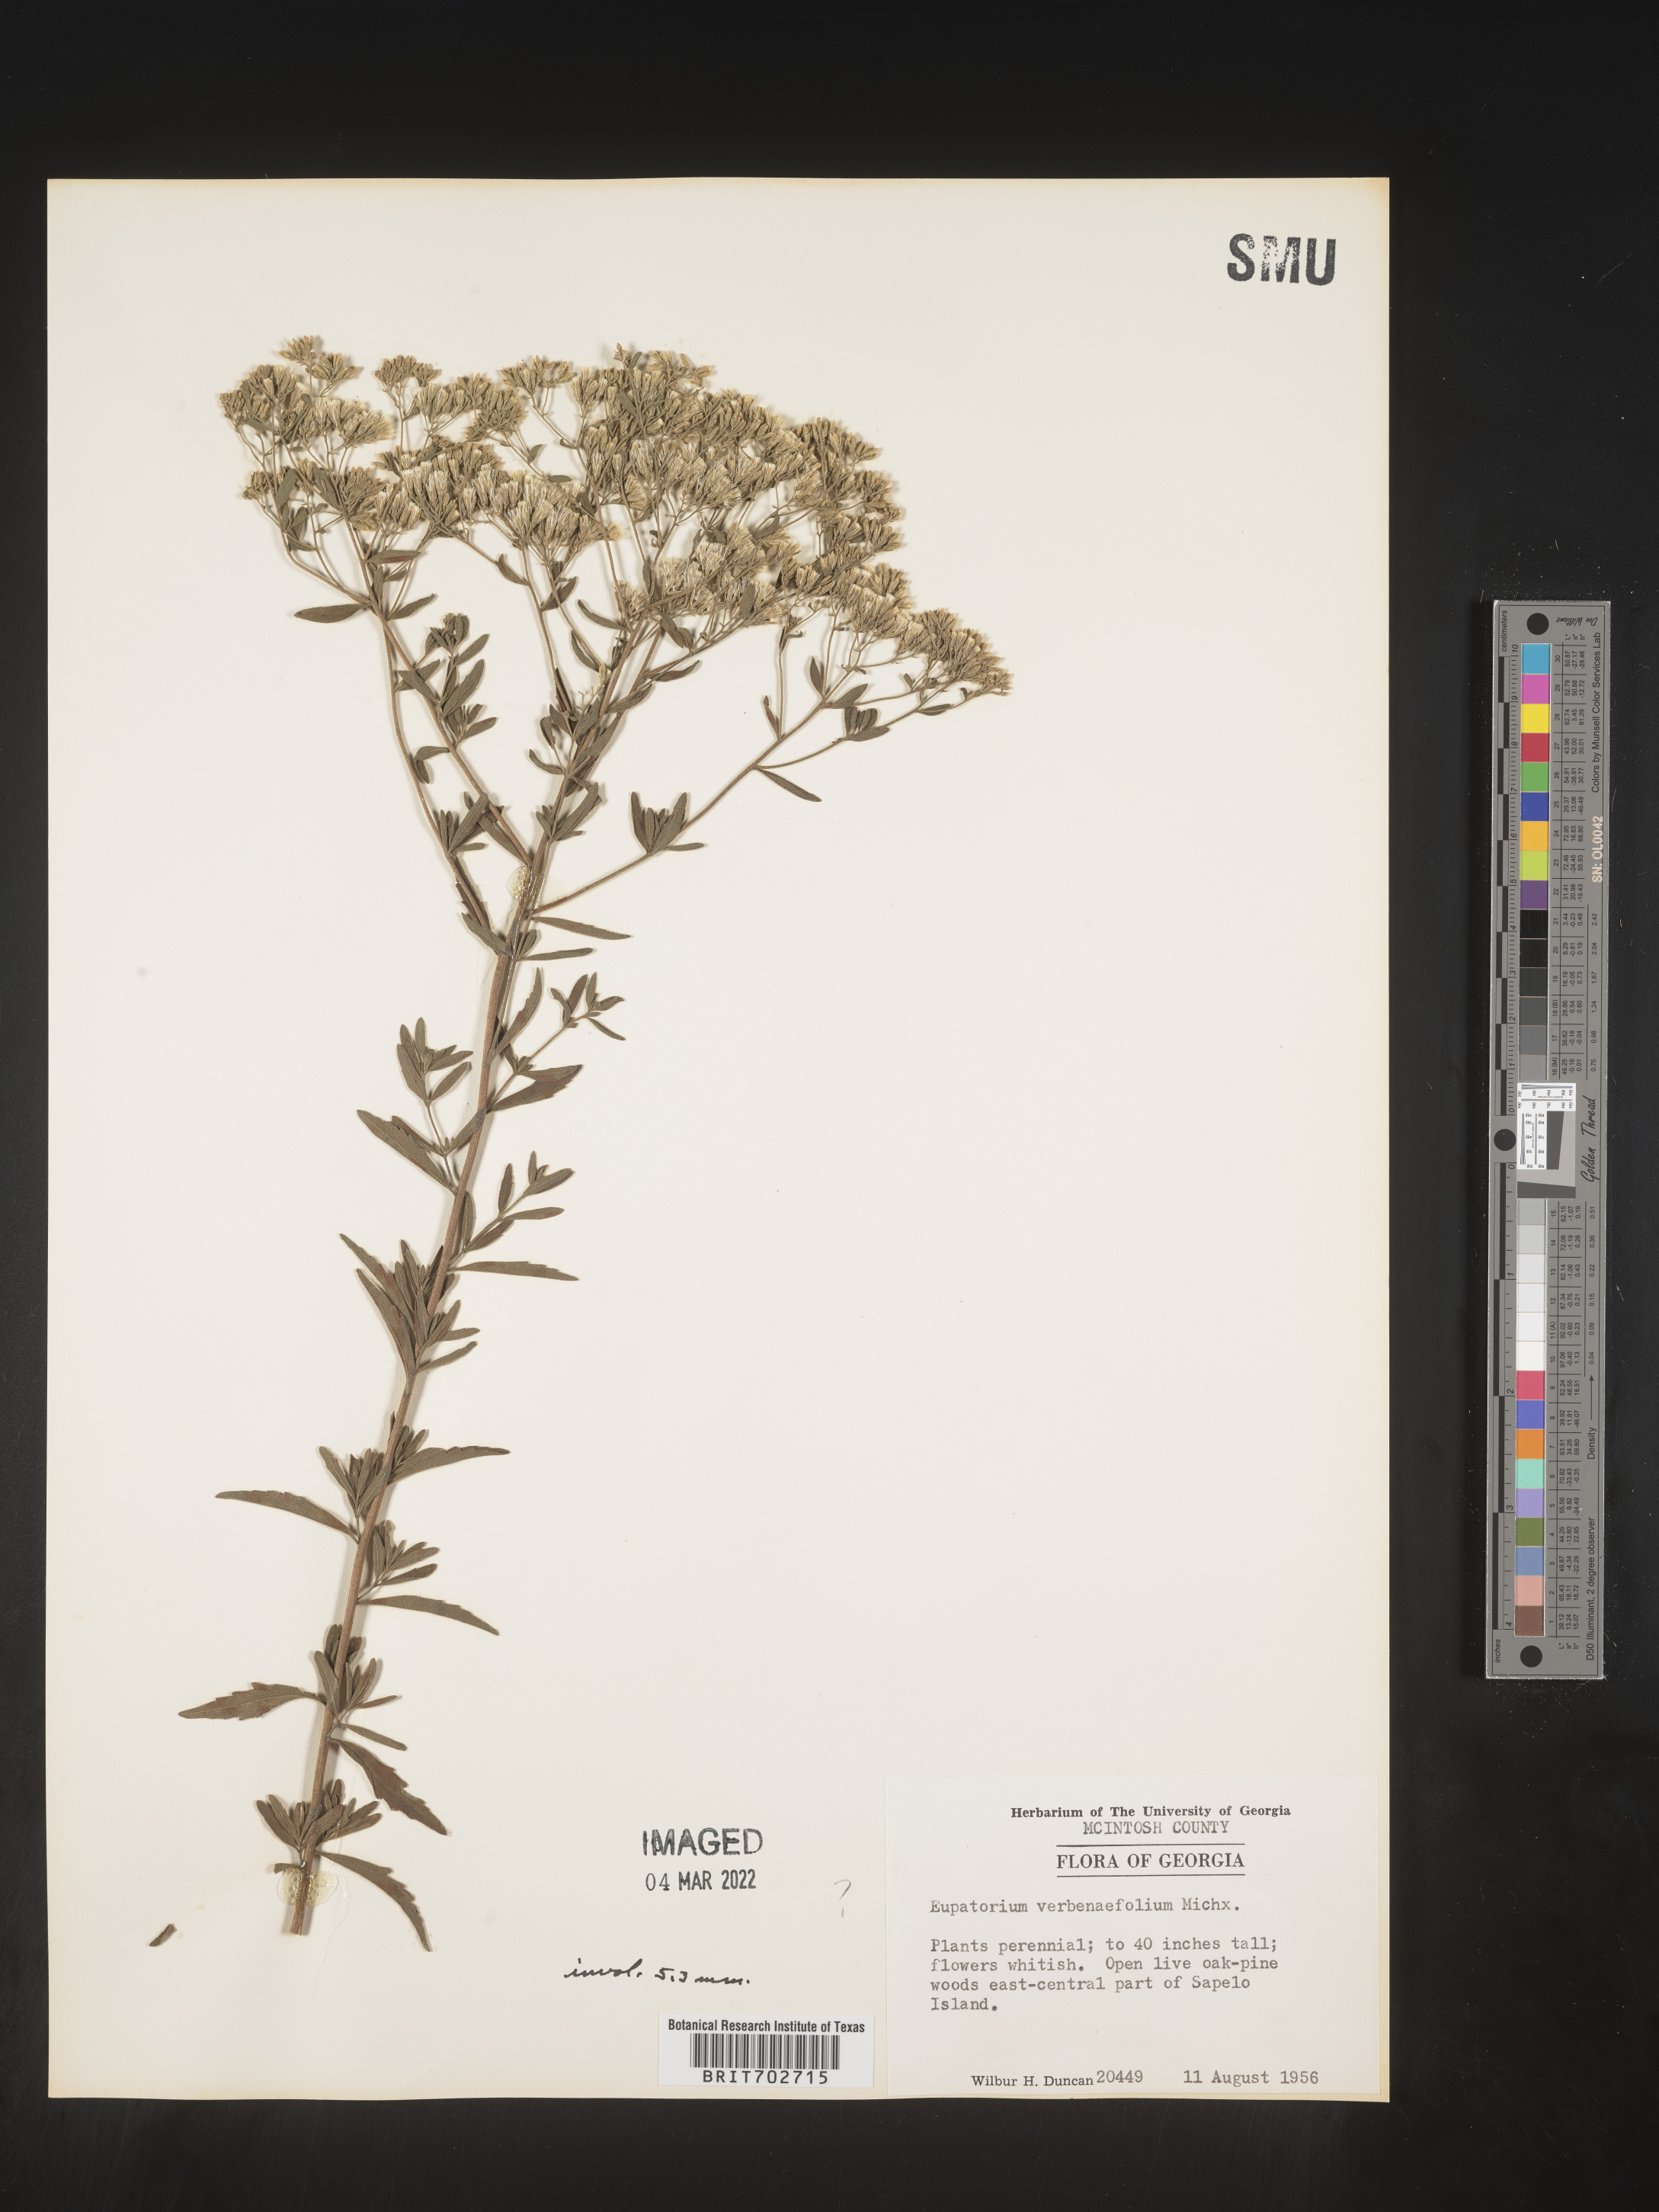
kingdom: Plantae
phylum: Tracheophyta
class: Magnoliopsida
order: Asterales
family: Asteraceae
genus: Eupatorium
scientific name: Eupatorium
